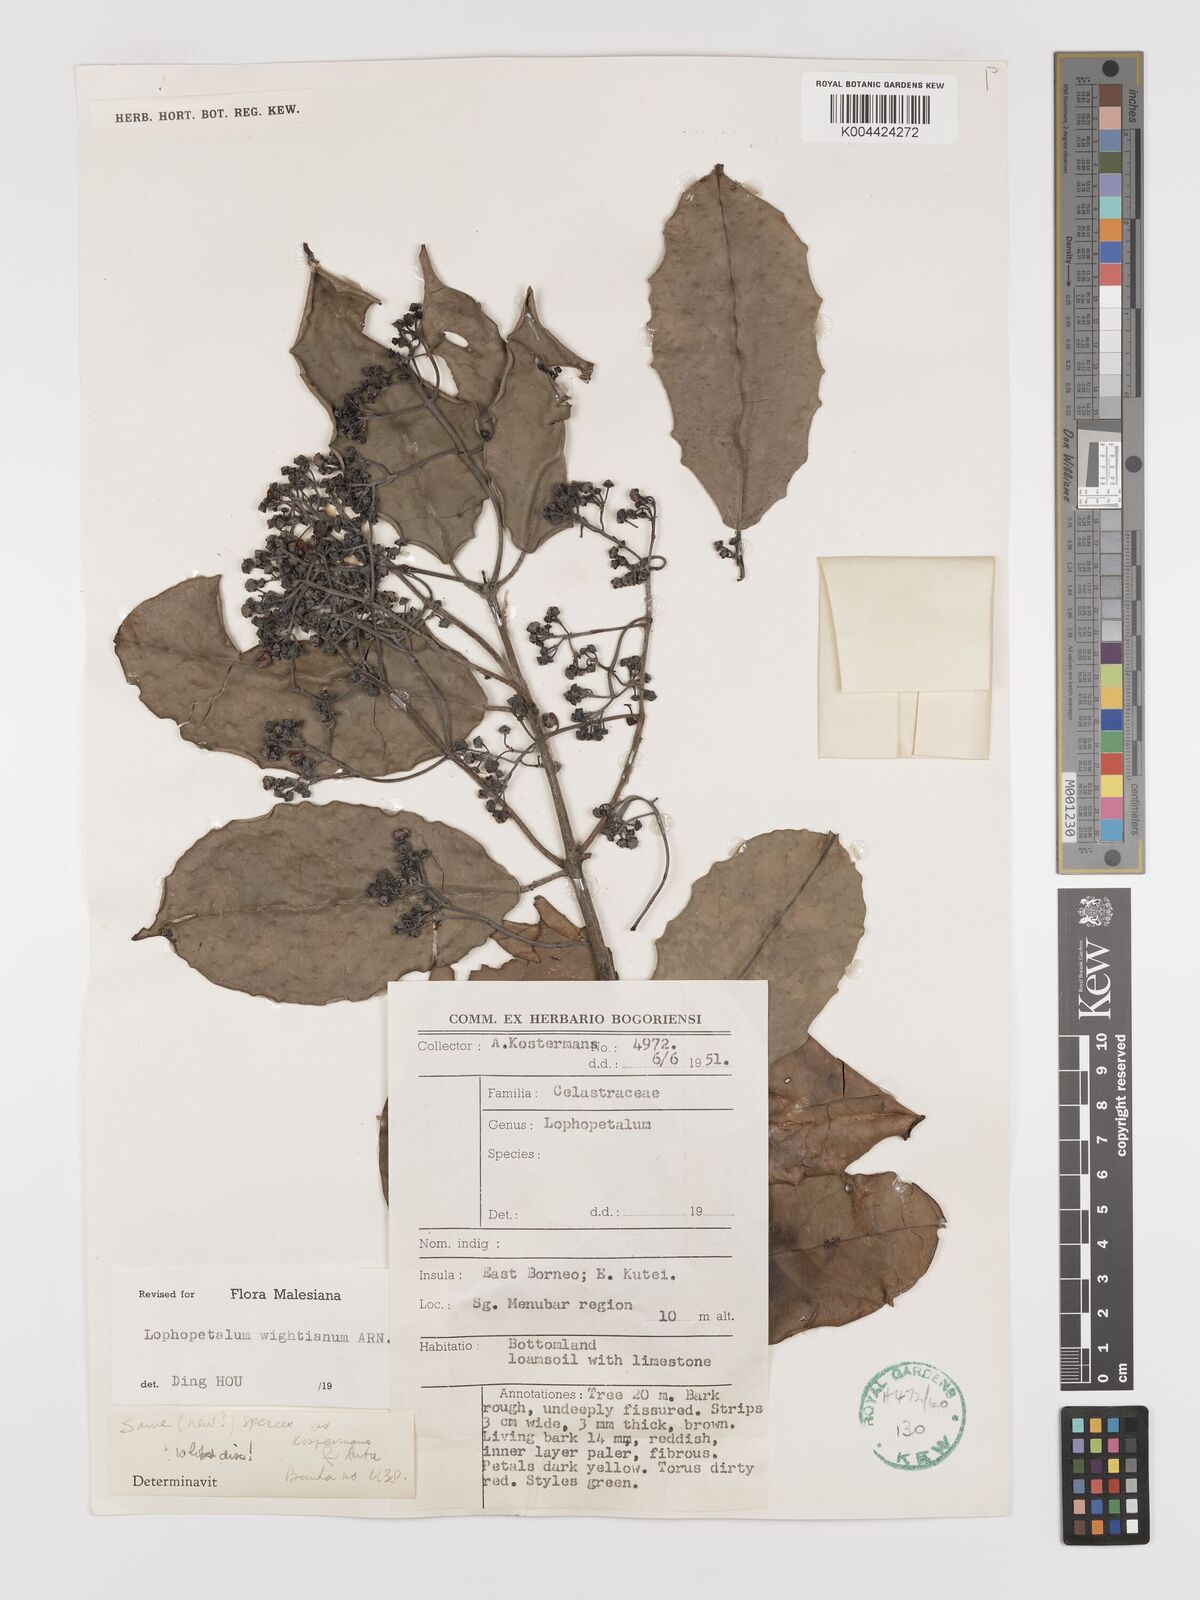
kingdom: Plantae
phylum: Tracheophyta
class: Magnoliopsida
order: Celastrales
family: Celastraceae
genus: Lophopetalum
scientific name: Lophopetalum wightianum
